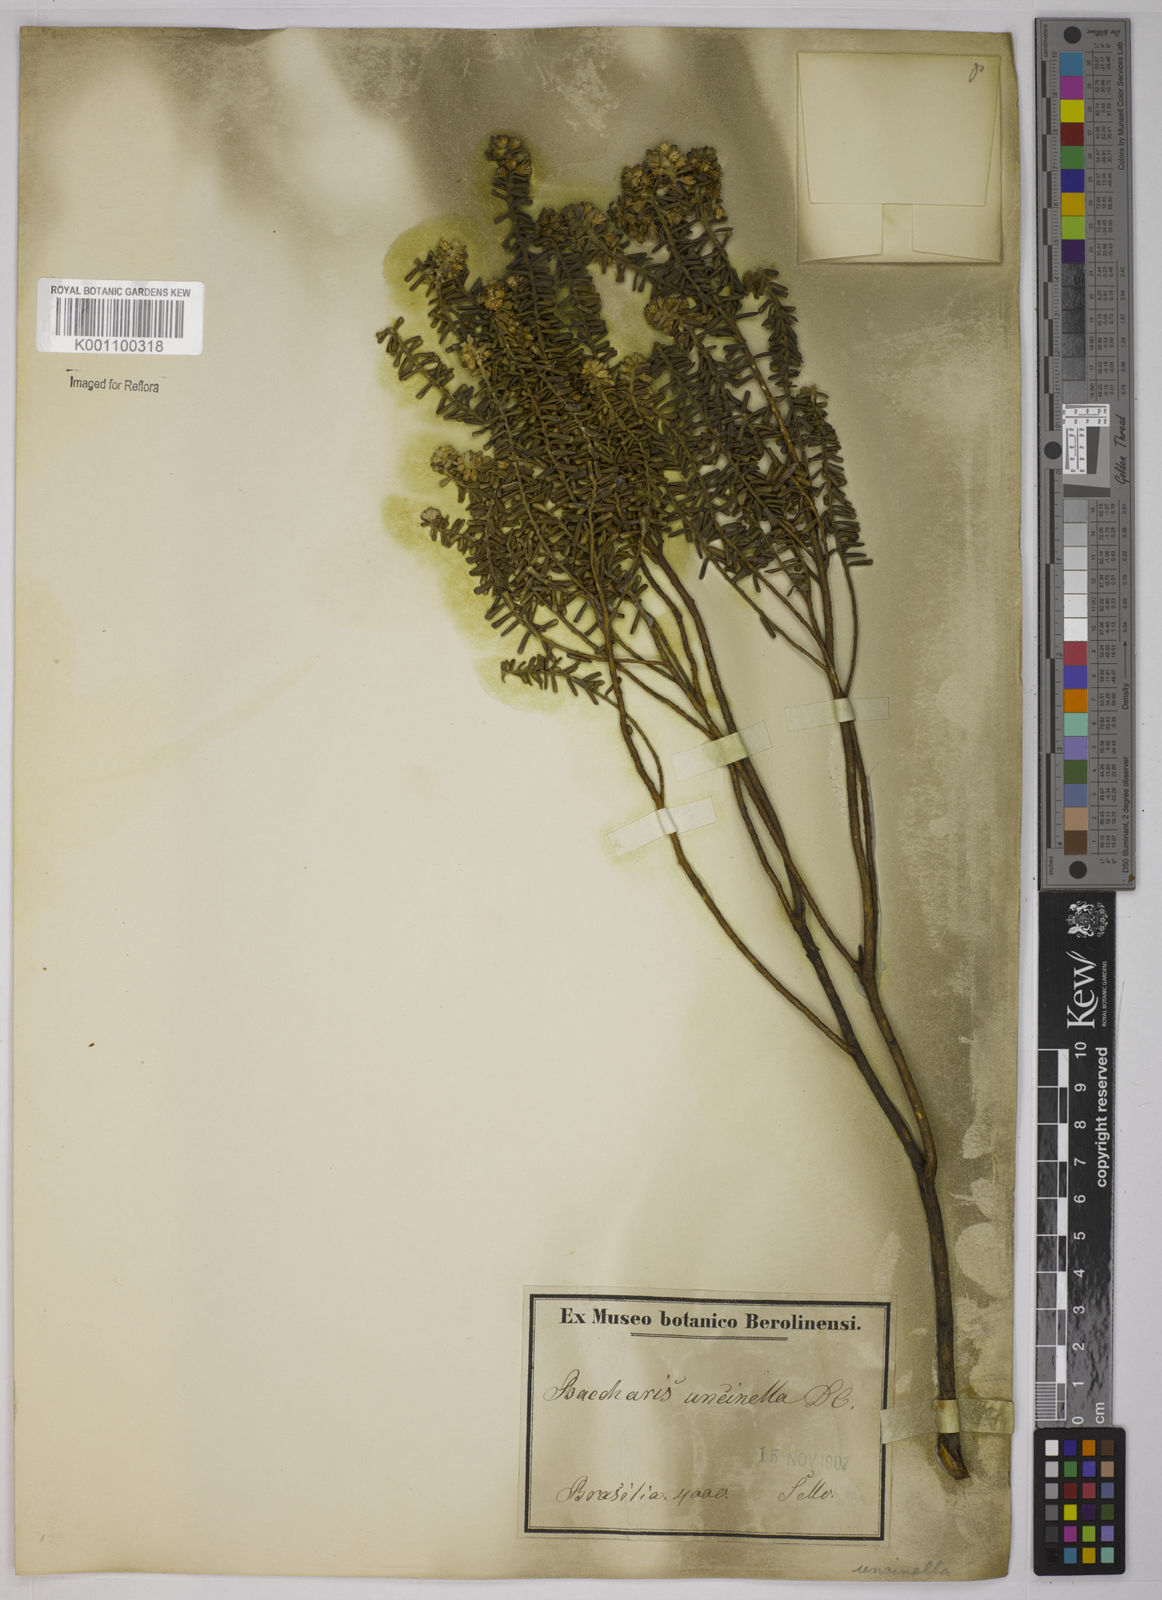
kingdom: Plantae
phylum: Tracheophyta
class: Magnoliopsida
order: Asterales
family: Asteraceae
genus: Baccharis
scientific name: Baccharis uncinella
